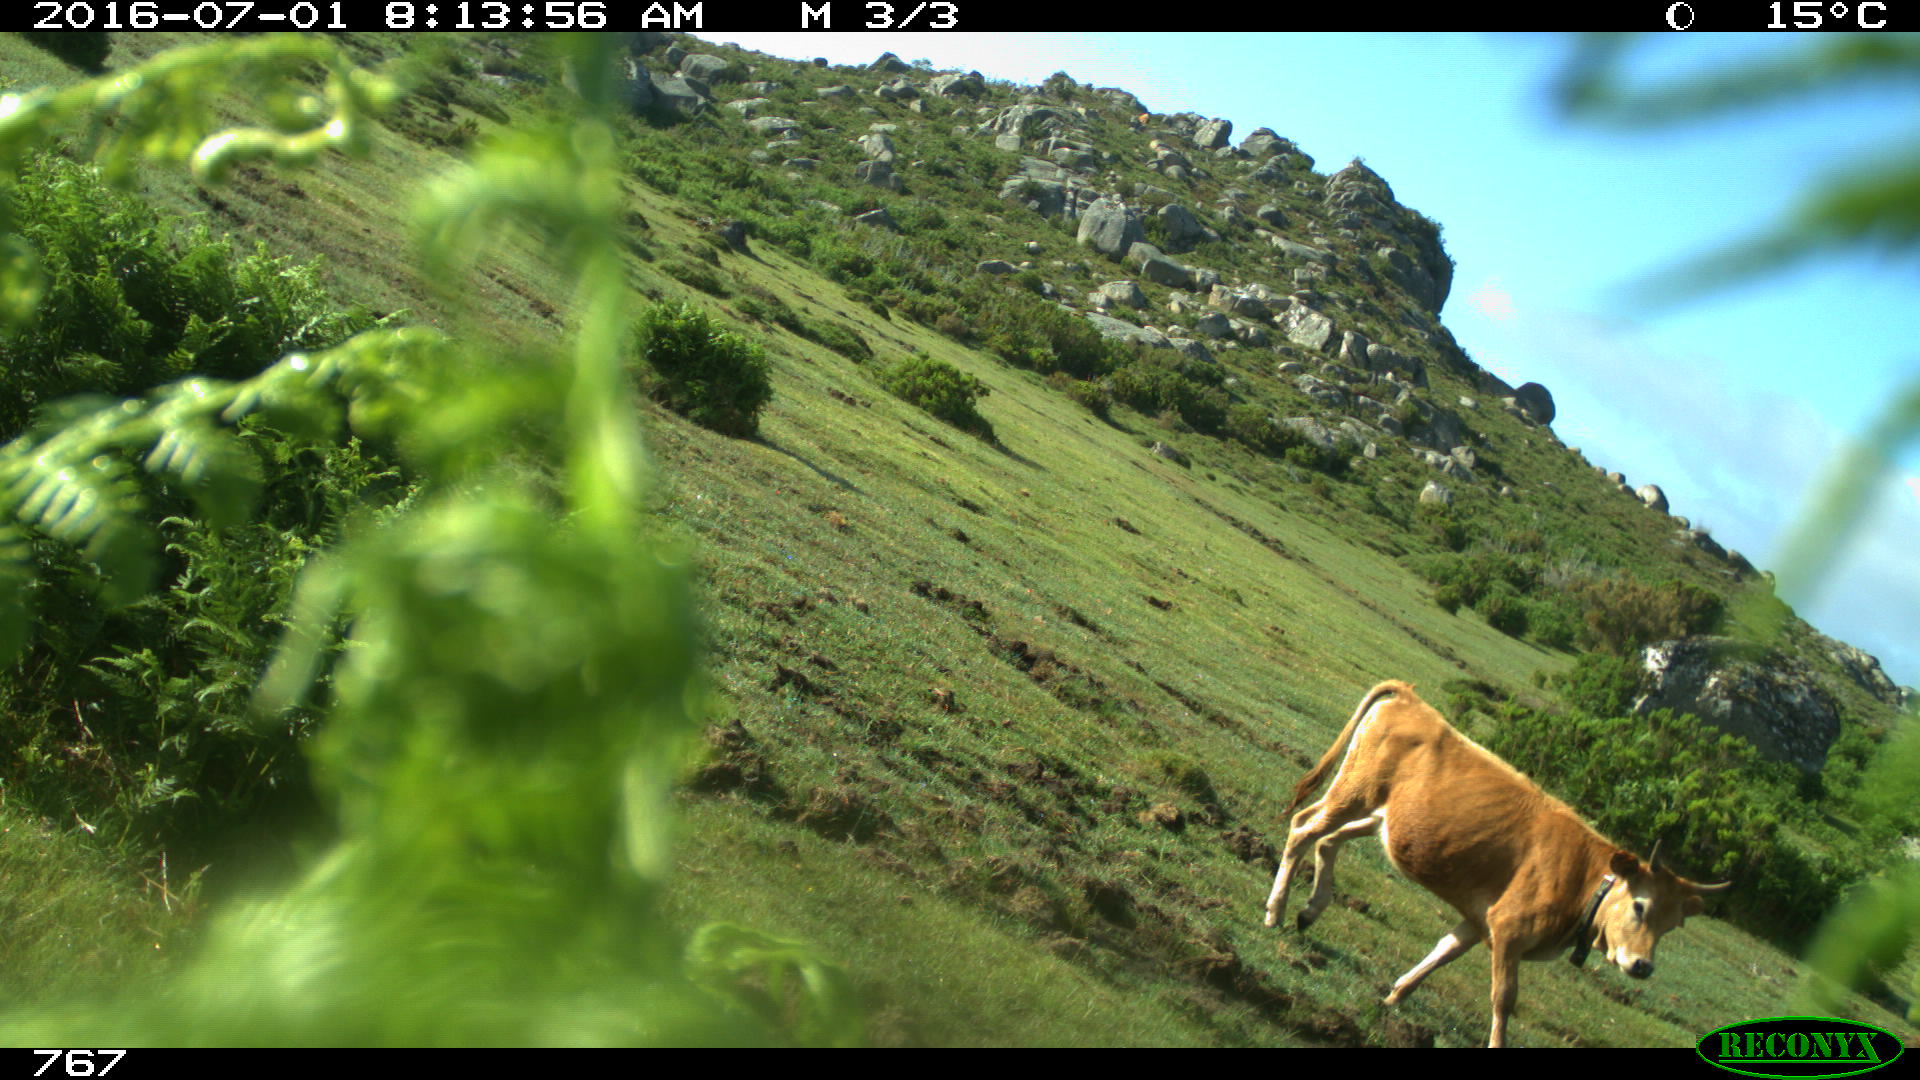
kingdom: Animalia
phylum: Chordata
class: Mammalia
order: Artiodactyla
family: Bovidae
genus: Bos
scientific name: Bos taurus
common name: Domesticated cattle
